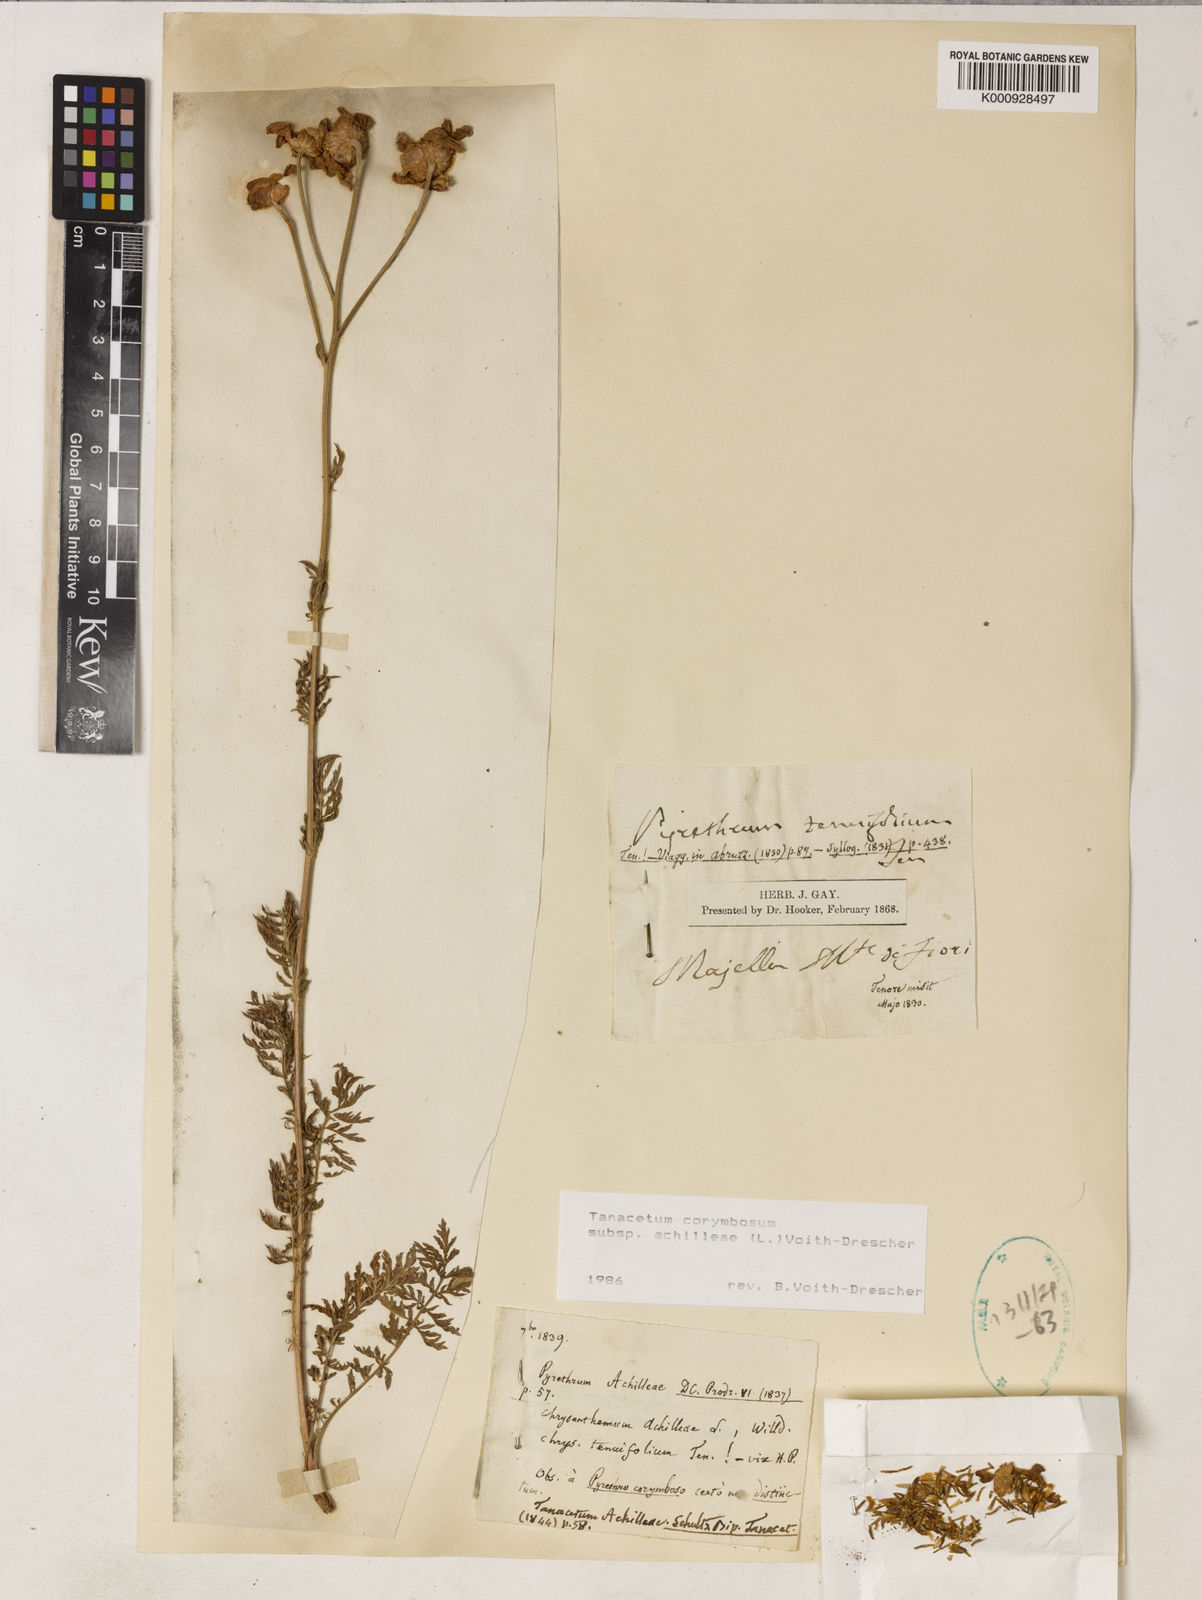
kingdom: Plantae
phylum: Tracheophyta
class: Magnoliopsida
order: Asterales
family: Asteraceae
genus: Tanacetum
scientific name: Tanacetum corymbosum
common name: Scentless feverfew
